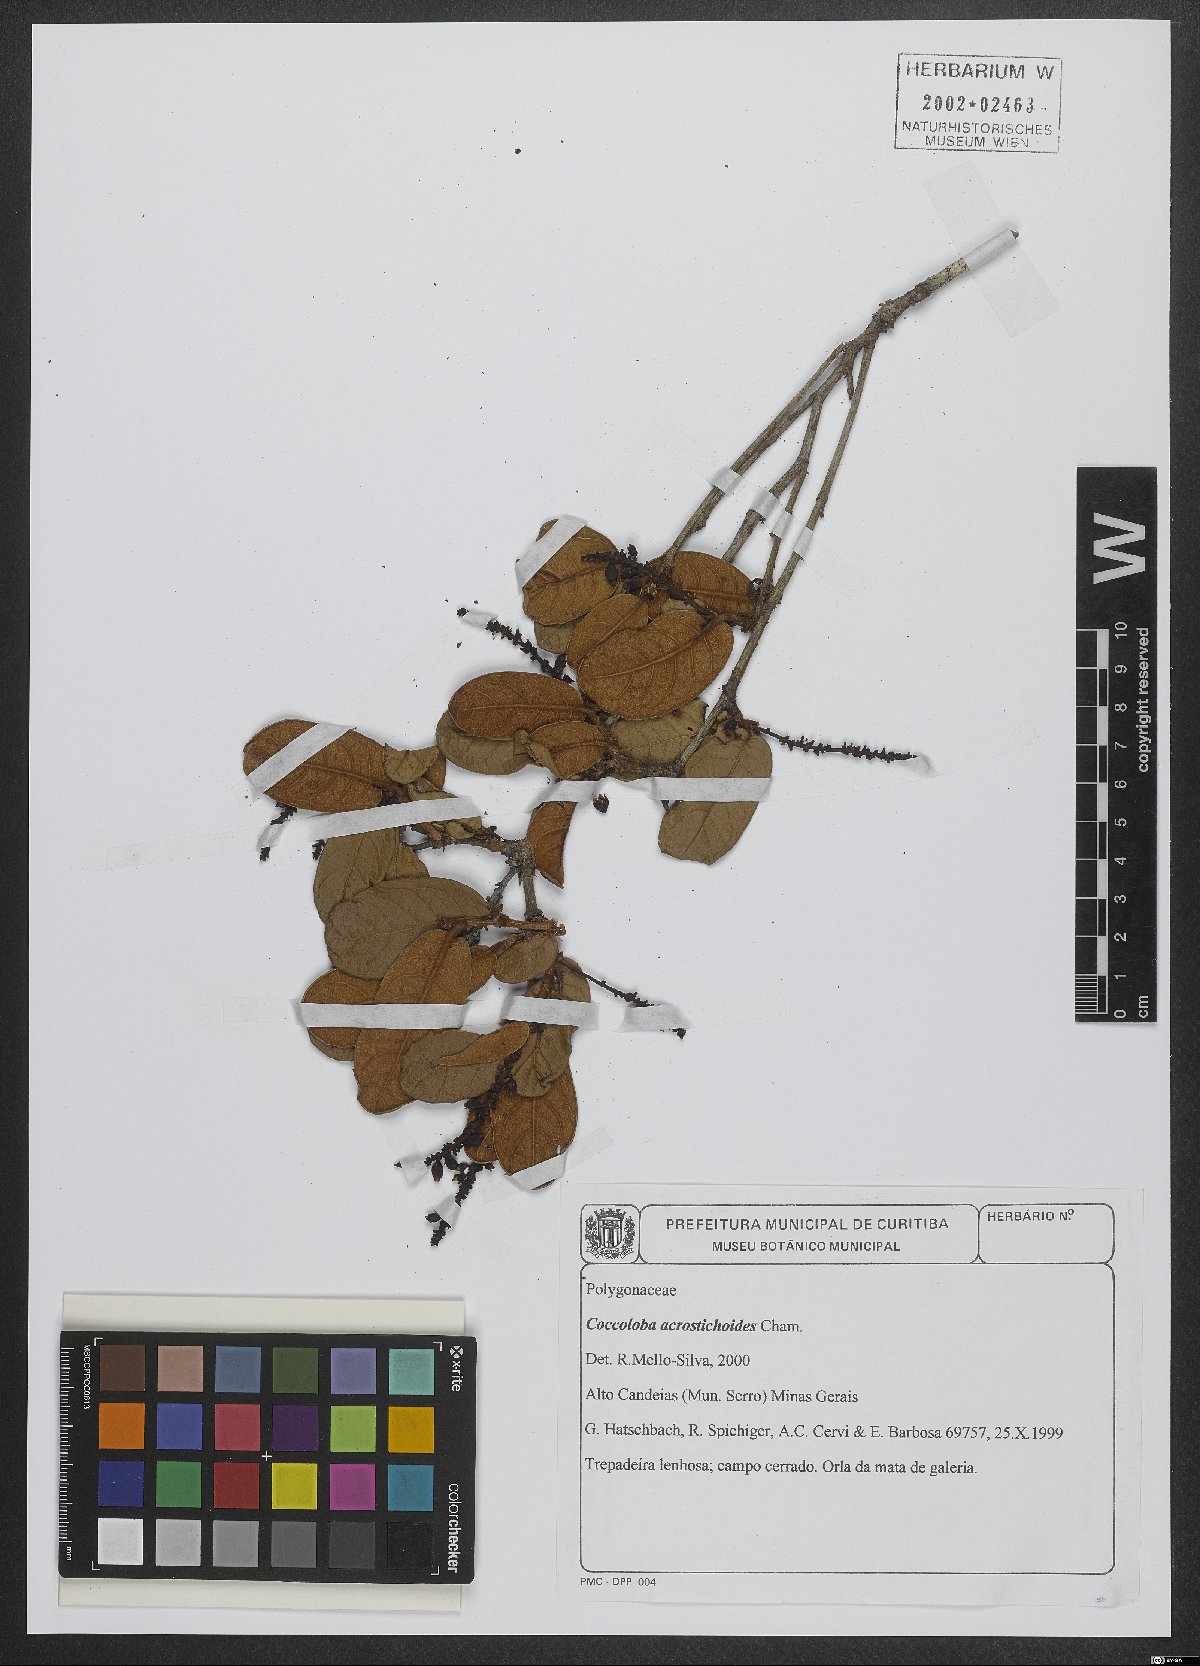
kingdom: Plantae
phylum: Tracheophyta
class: Magnoliopsida
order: Caryophyllales
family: Polygonaceae
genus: Coccoloba
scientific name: Coccoloba acrostichoides
